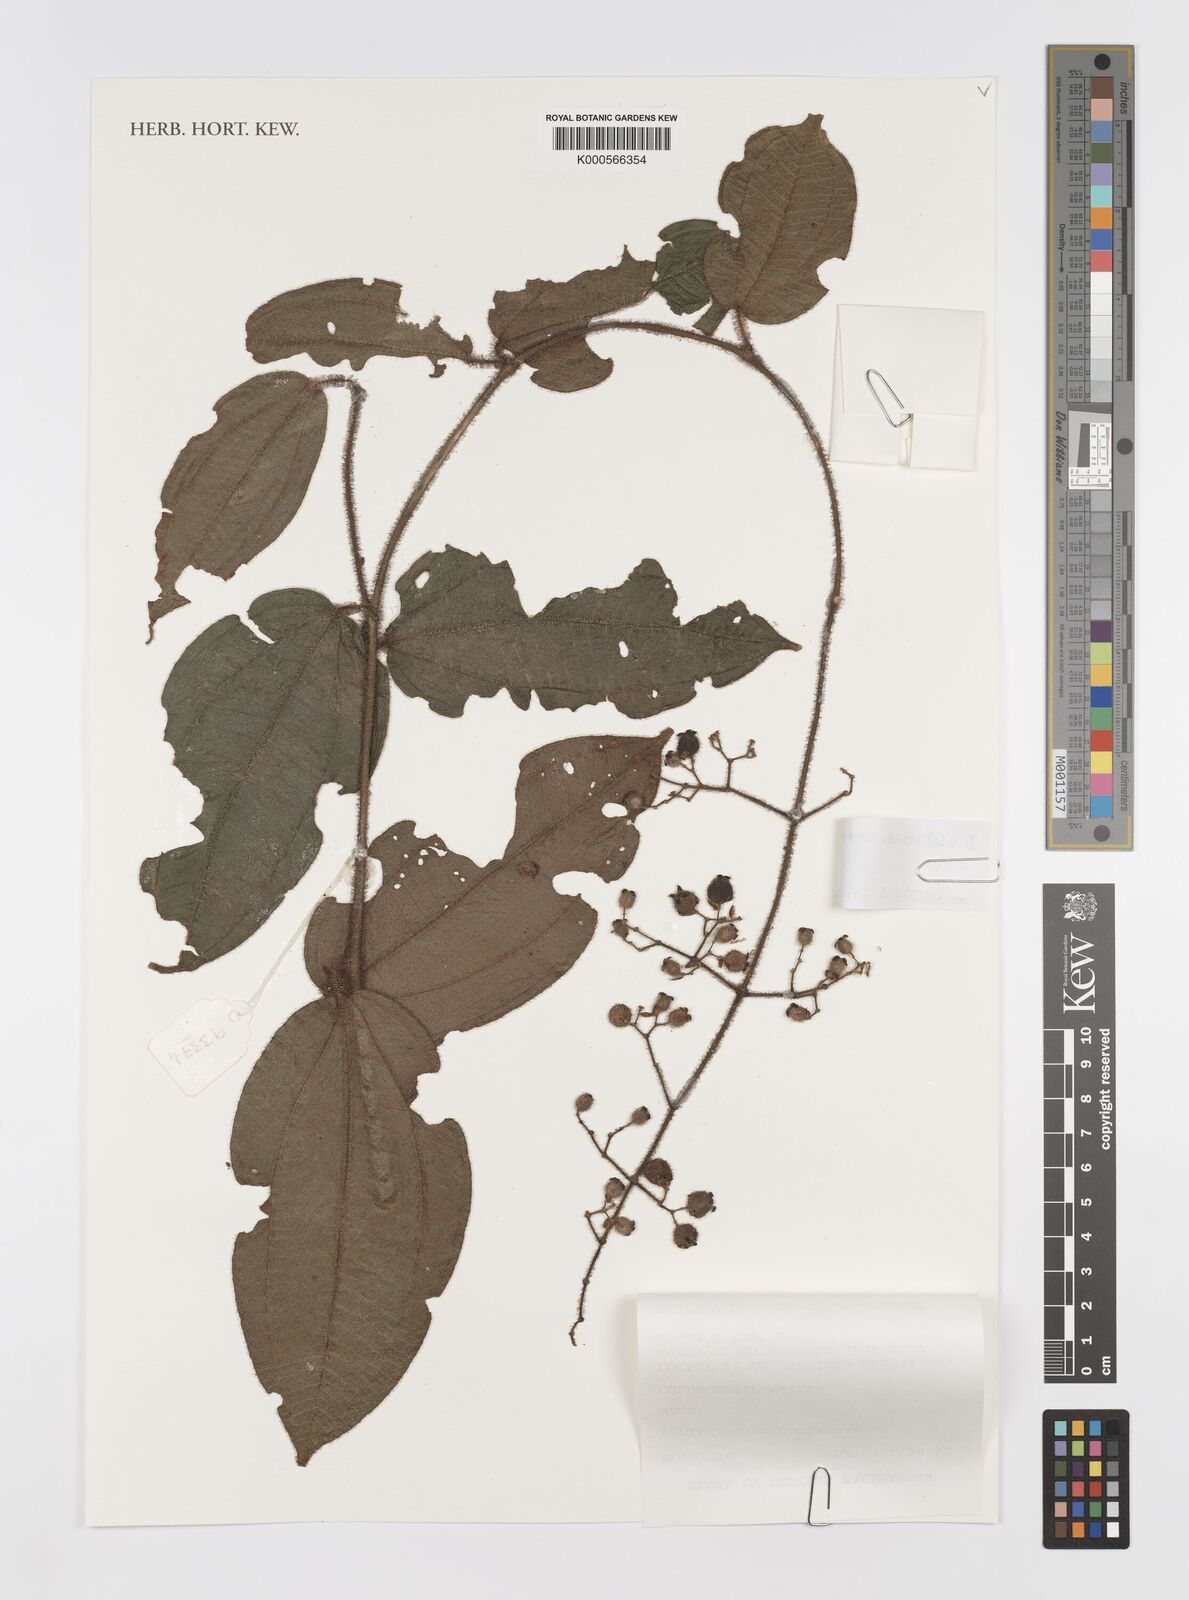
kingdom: Plantae
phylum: Tracheophyta
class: Magnoliopsida
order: Myrtales
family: Melastomataceae
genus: Macrolenes
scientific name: Macrolenes rostrata
